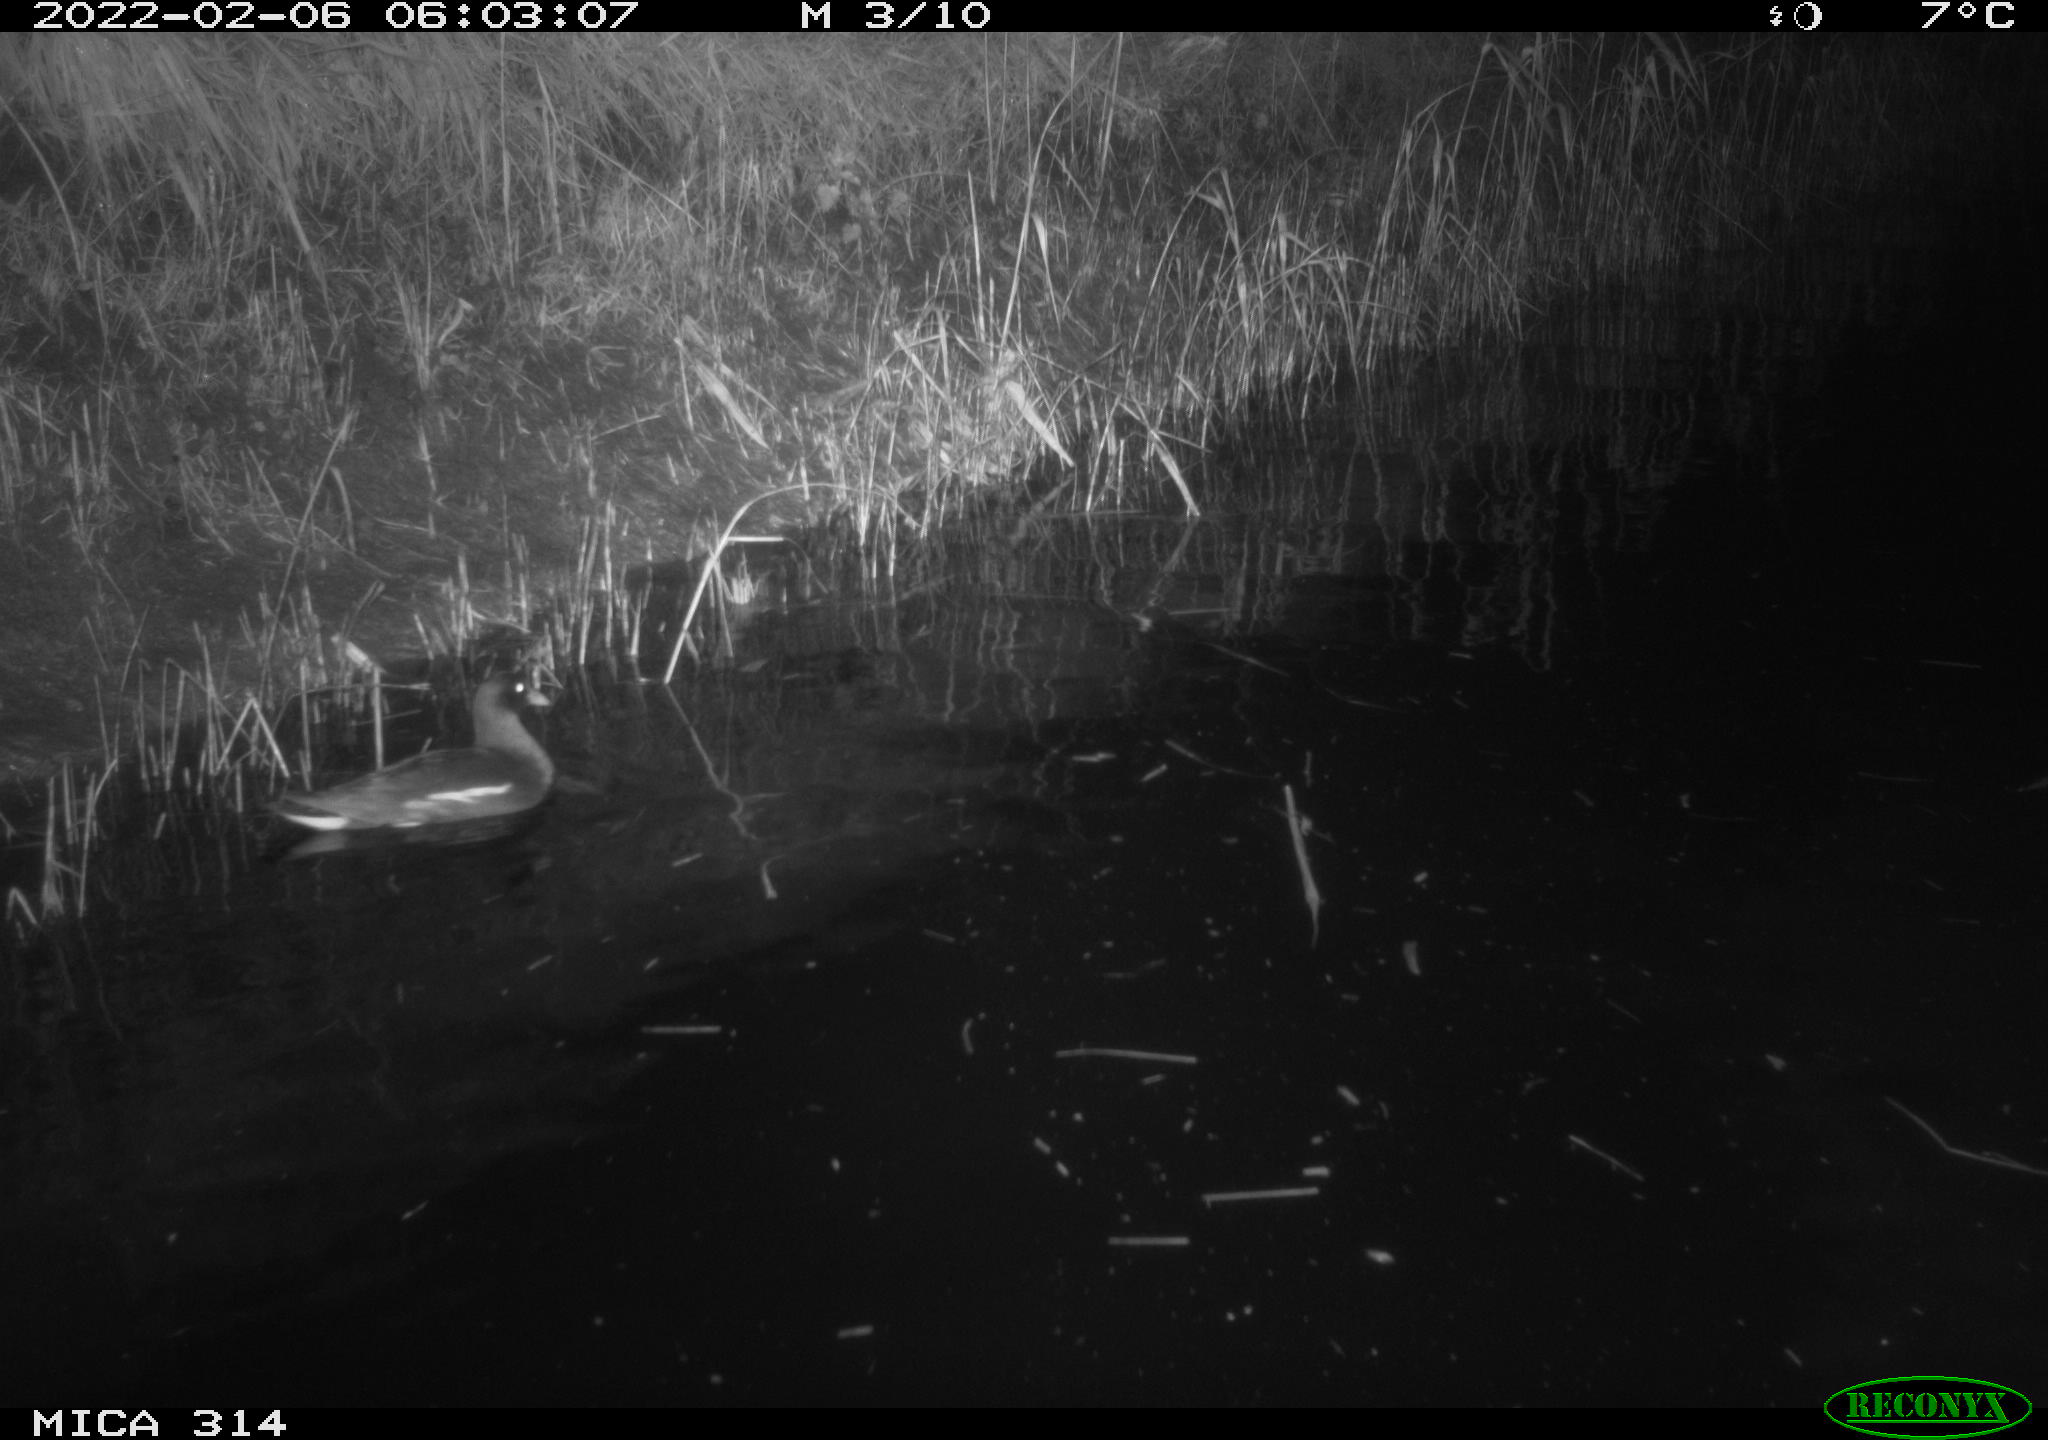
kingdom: Animalia
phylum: Chordata
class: Aves
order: Gruiformes
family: Rallidae
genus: Gallinula
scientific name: Gallinula chloropus
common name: Common moorhen
